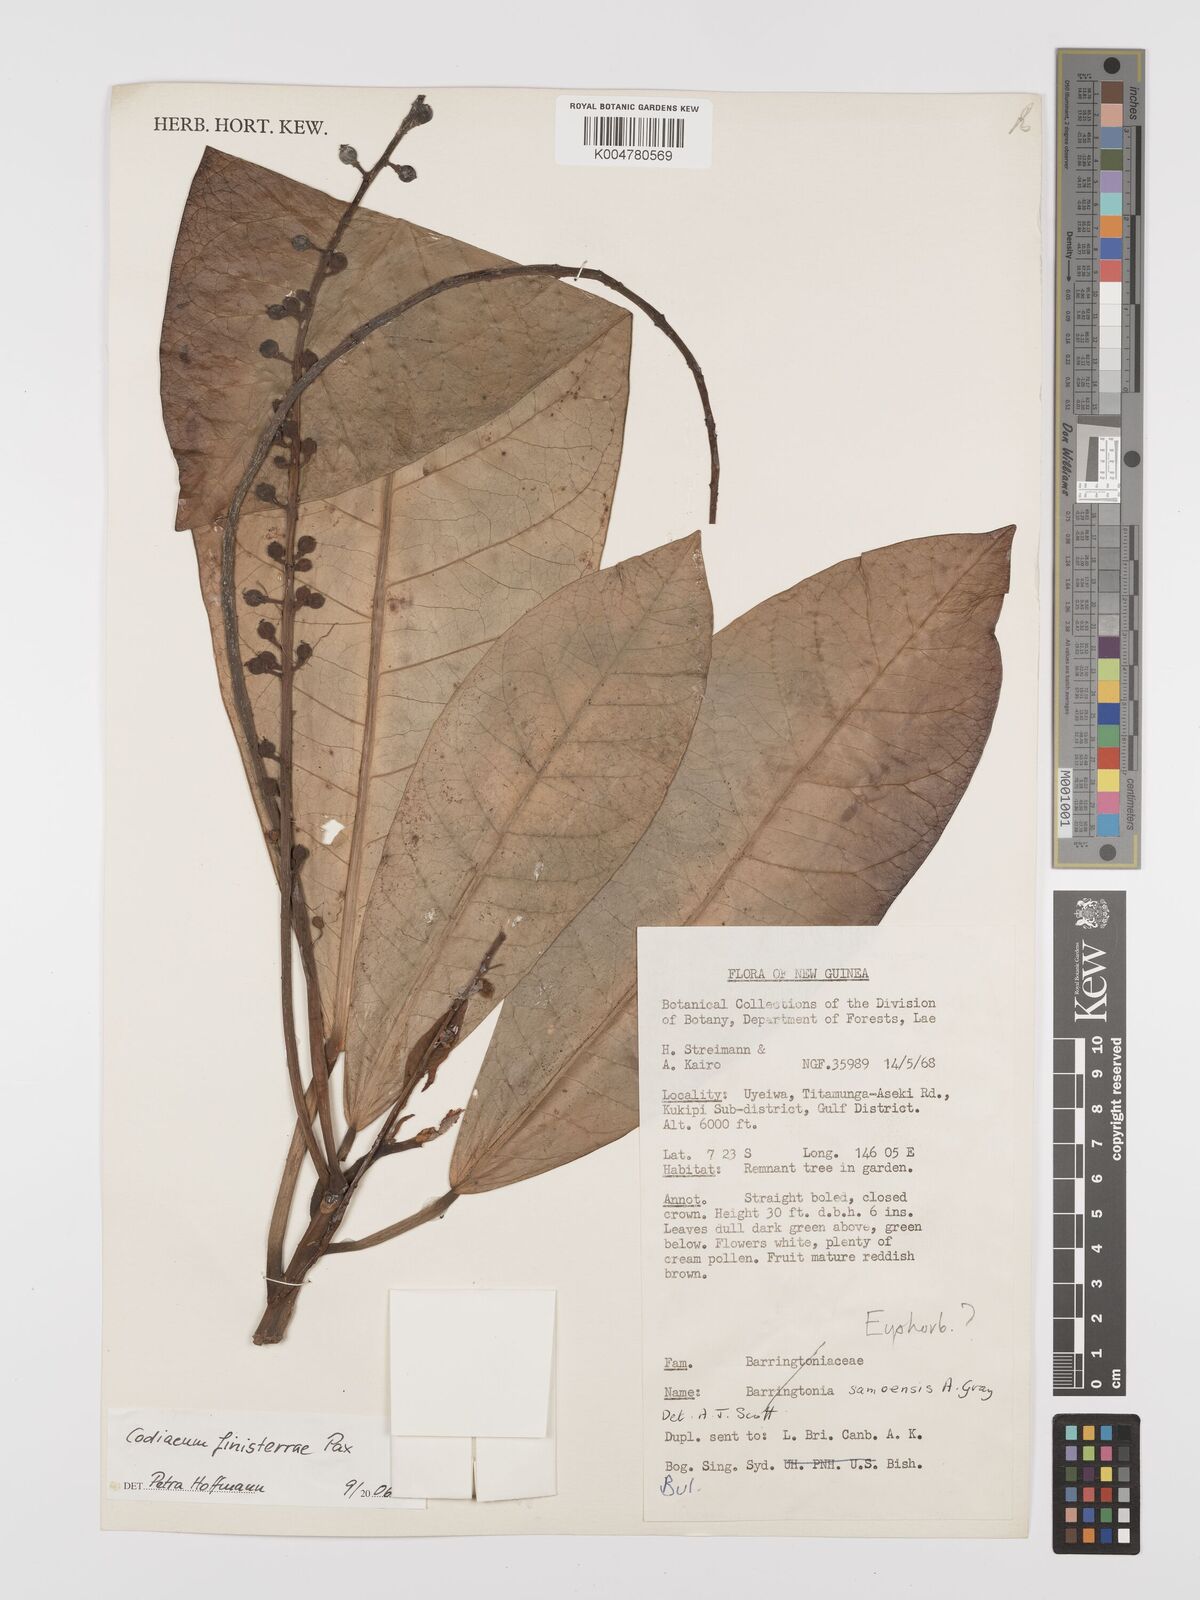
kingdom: Plantae
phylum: Tracheophyta
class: Magnoliopsida
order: Malpighiales
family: Euphorbiaceae
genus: Codiaeum
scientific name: Codiaeum finisterrae
